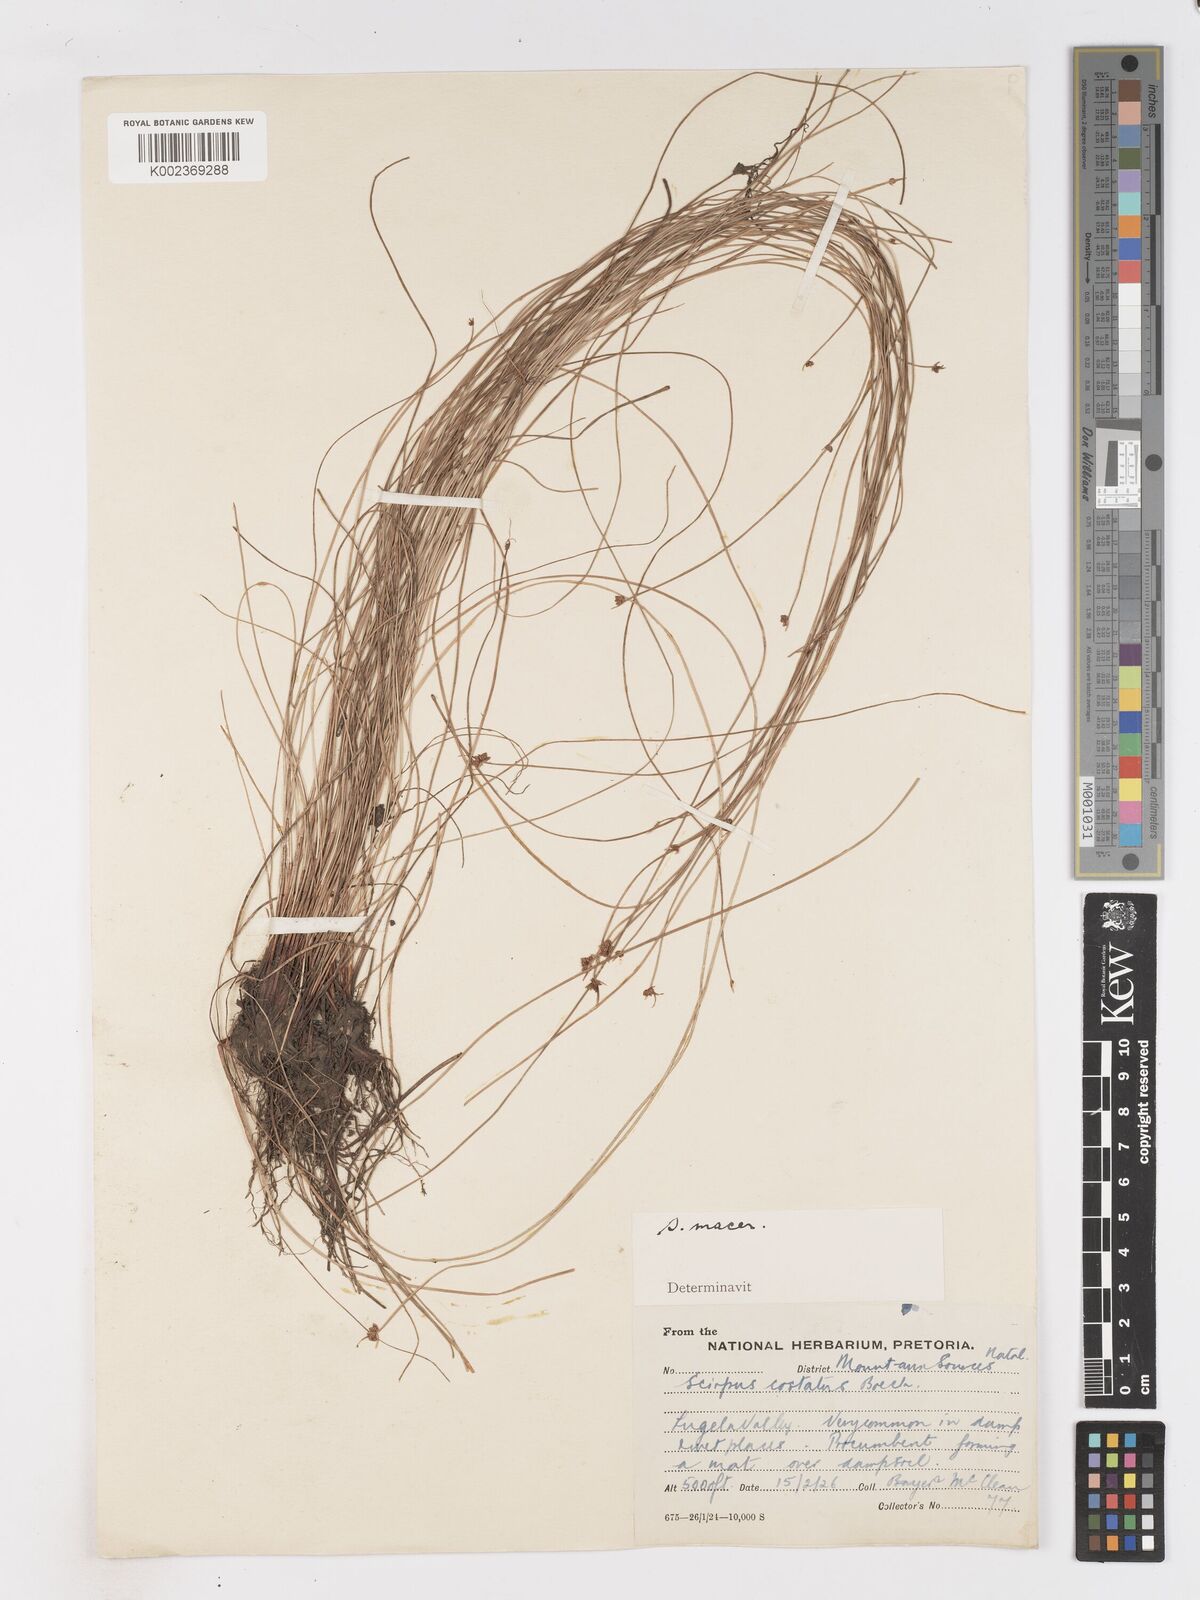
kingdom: Plantae
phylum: Tracheophyta
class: Liliopsida
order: Poales
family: Cyperaceae
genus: Isolepis
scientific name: Isolepis costata
